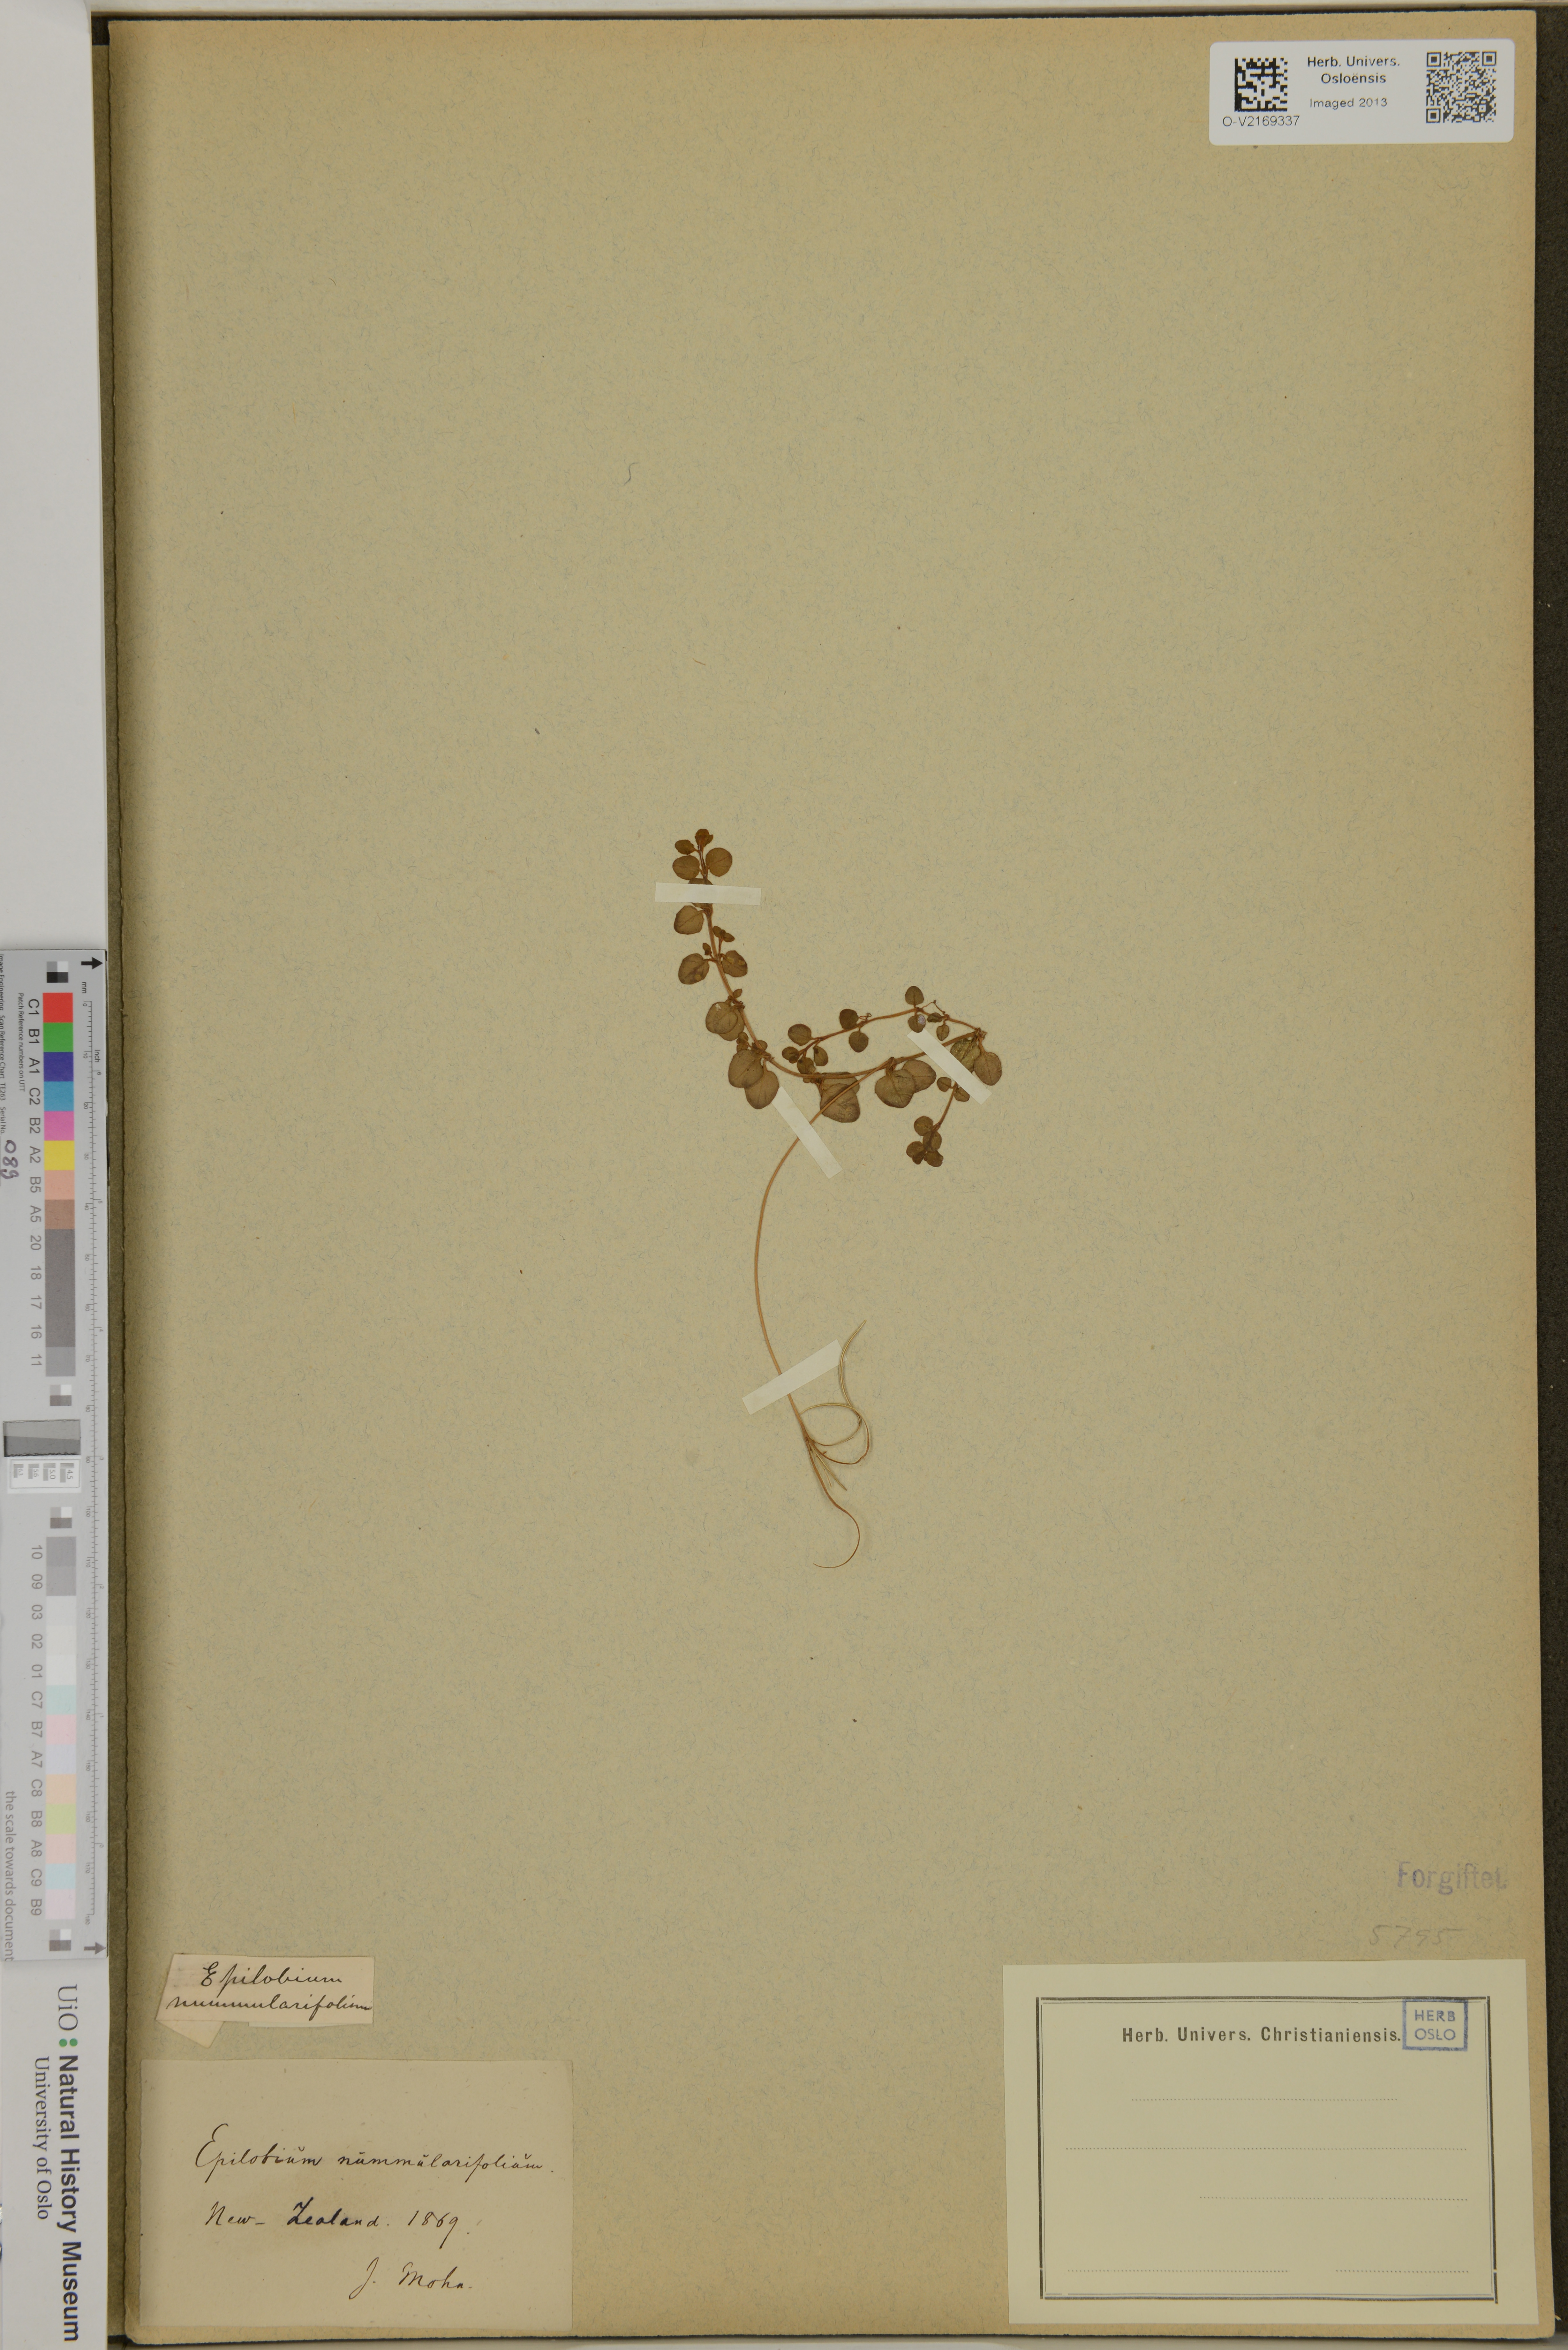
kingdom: Plantae
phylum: Tracheophyta
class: Magnoliopsida
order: Myrtales
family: Onagraceae
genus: Epilobium
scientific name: Epilobium nummularifolium
